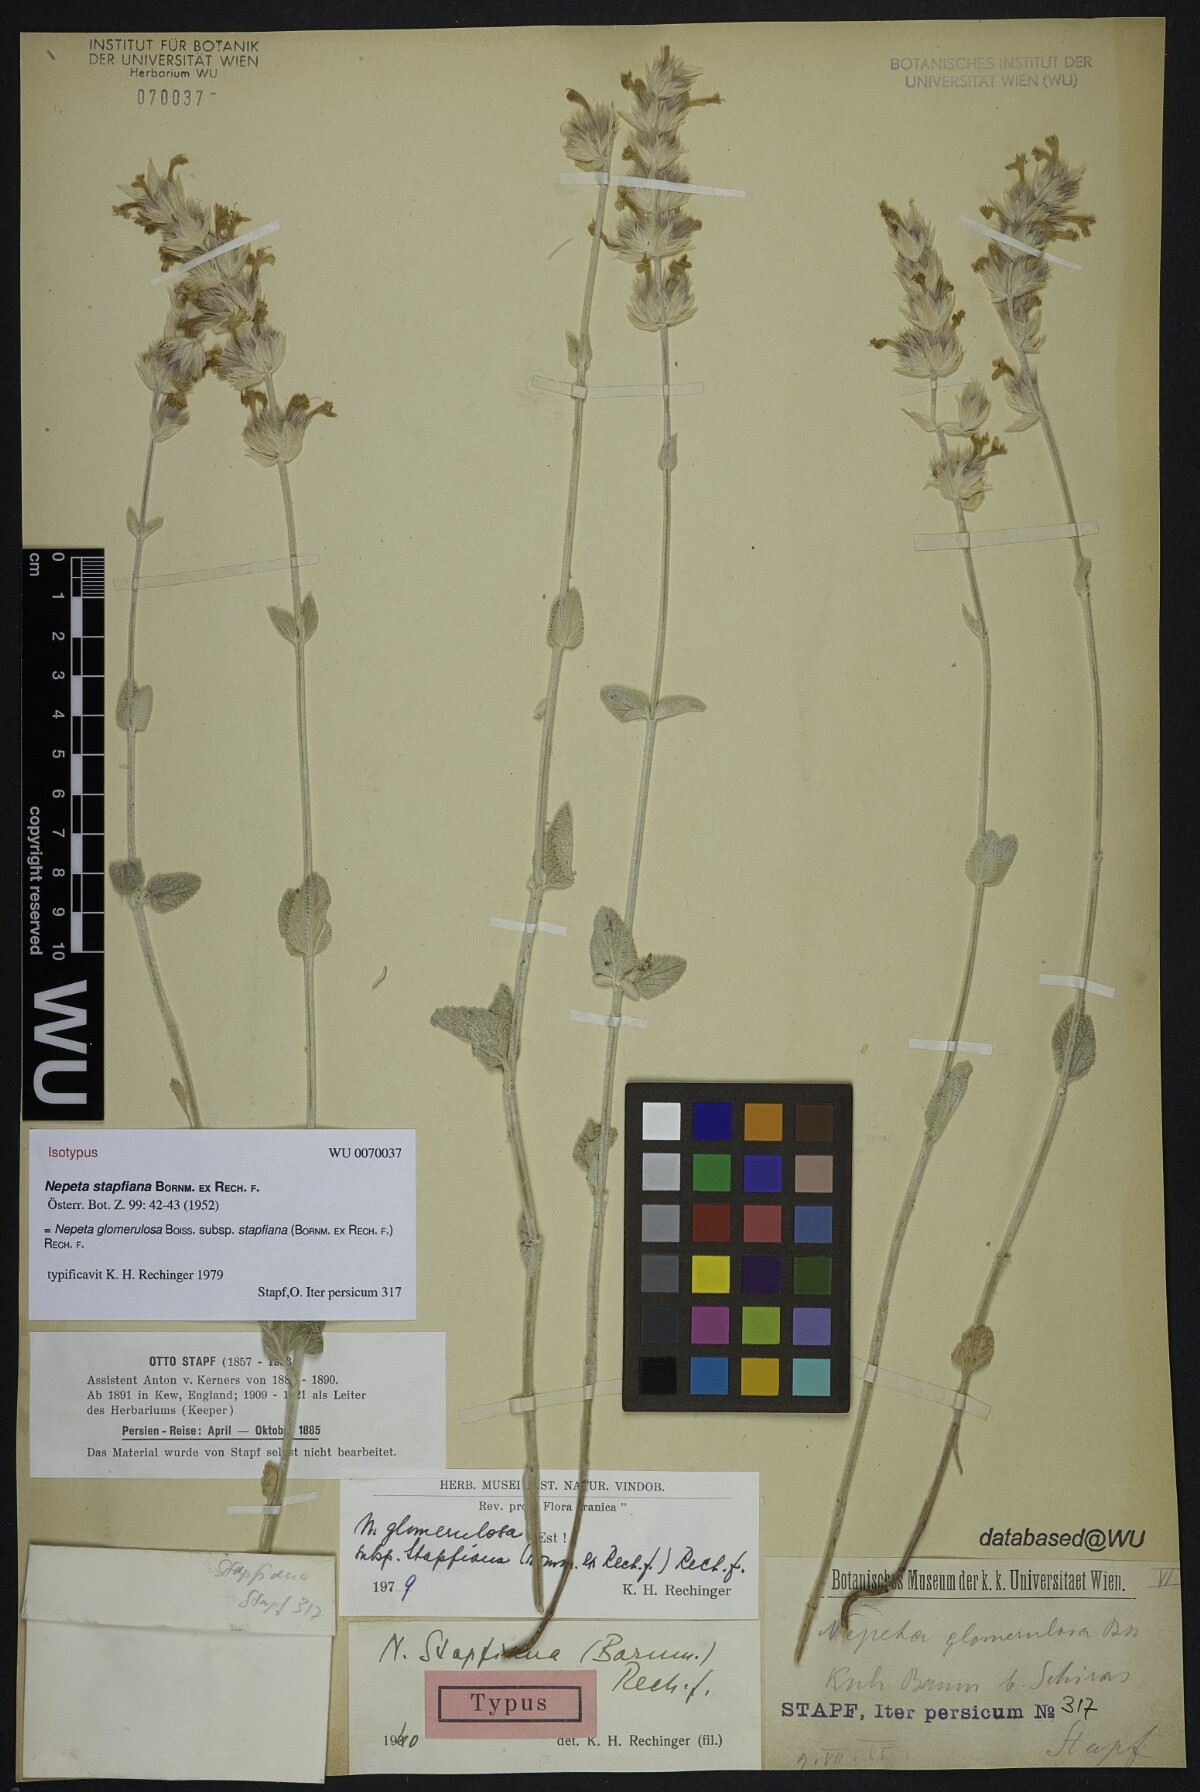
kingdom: Plantae
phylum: Tracheophyta
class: Magnoliopsida
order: Lamiales
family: Lamiaceae
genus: Nepeta
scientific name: Nepeta glomerulosa
